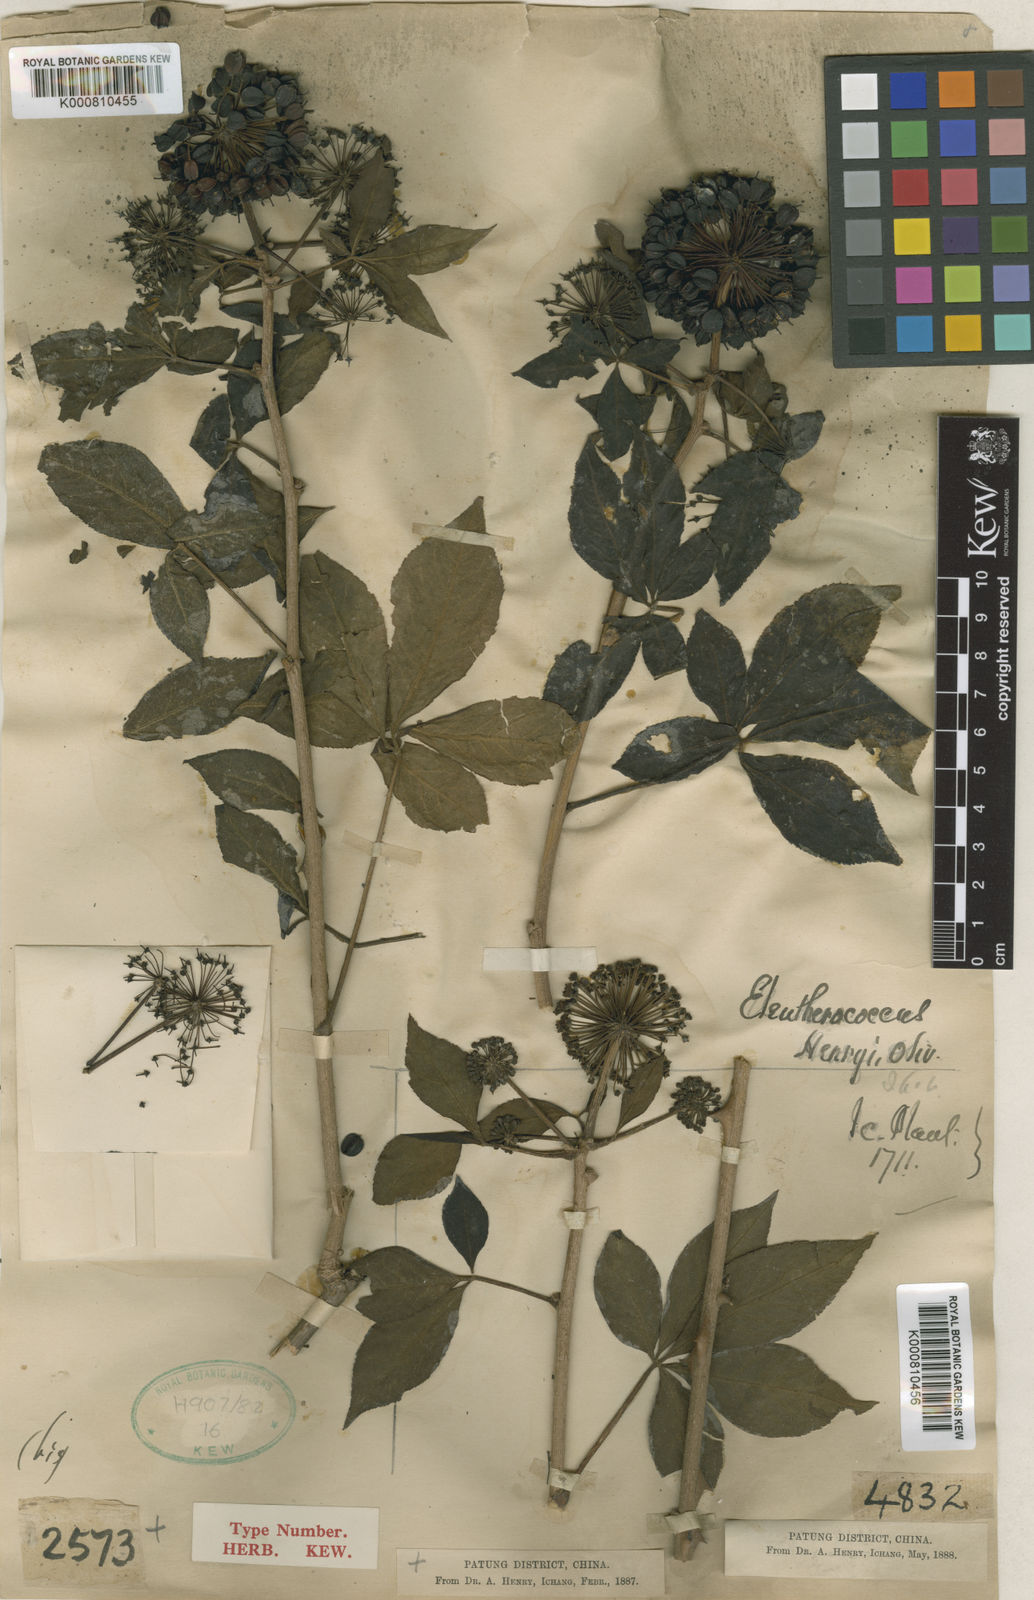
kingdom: Plantae
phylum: Tracheophyta
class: Magnoliopsida
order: Apiales
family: Araliaceae
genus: Eleutherococcus
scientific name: Eleutherococcus henryi
